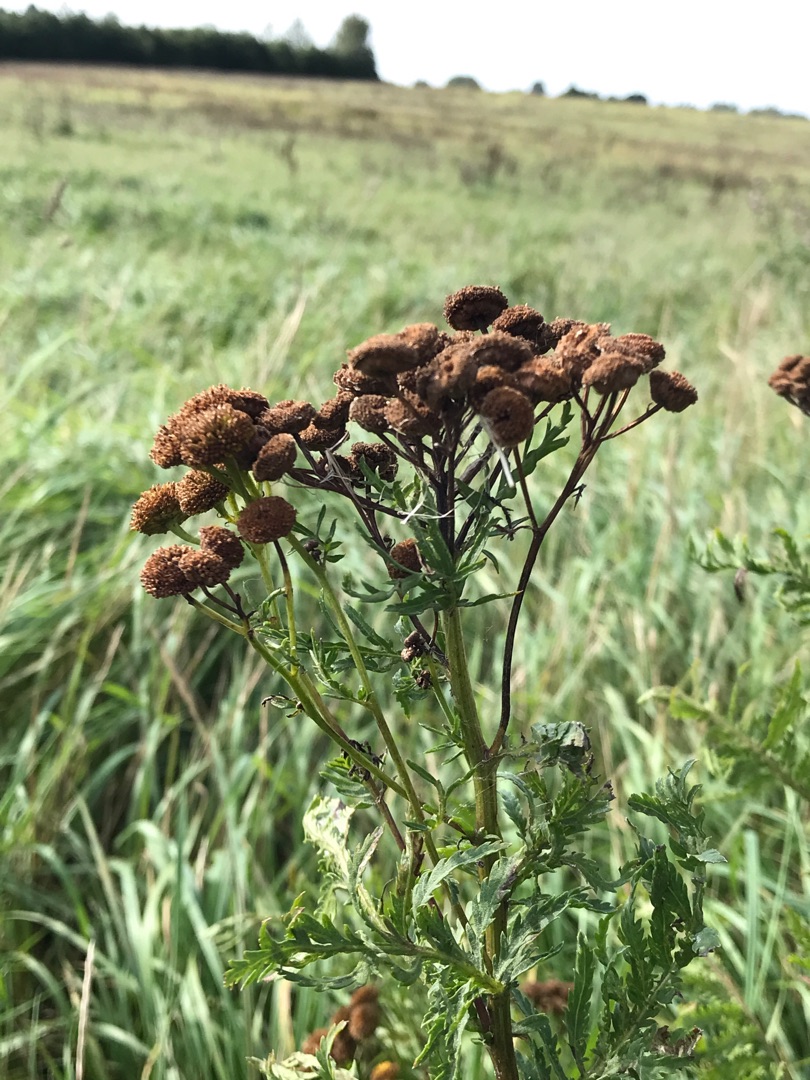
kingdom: Plantae
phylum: Tracheophyta
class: Magnoliopsida
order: Asterales
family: Asteraceae
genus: Tanacetum
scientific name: Tanacetum vulgare
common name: Rejnfan
